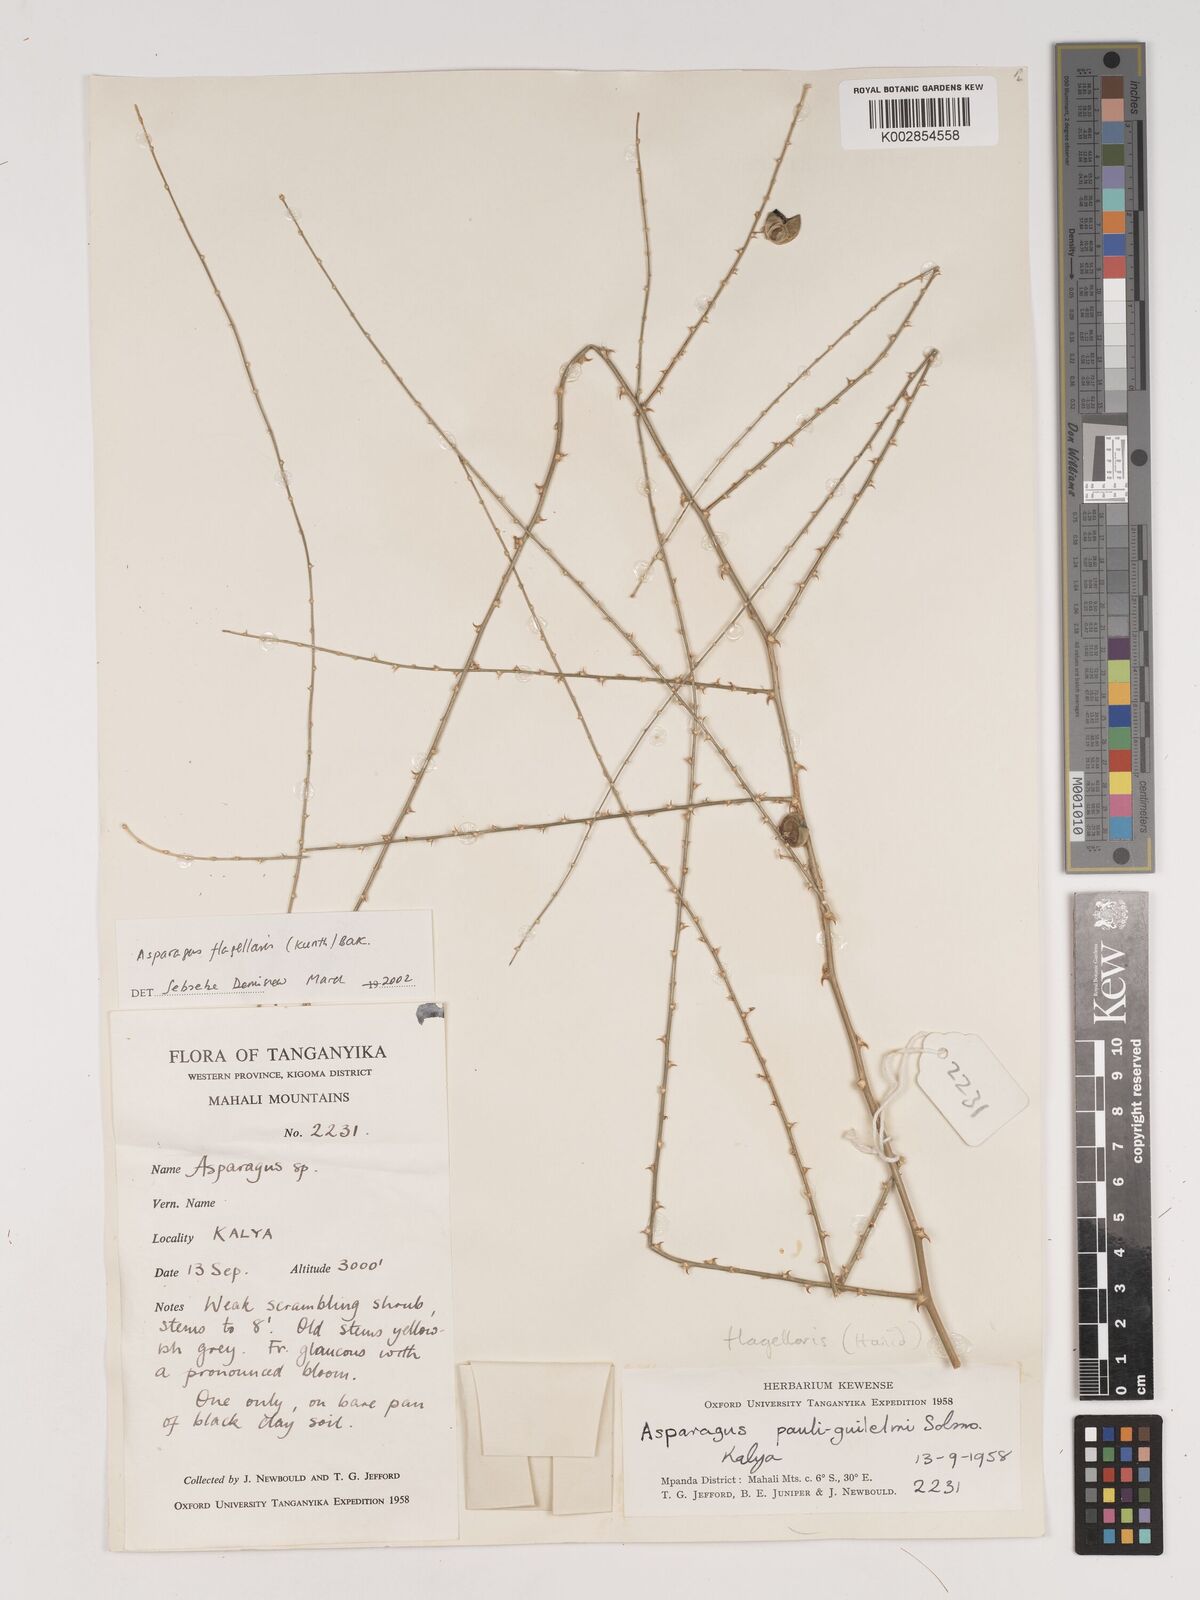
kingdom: Plantae
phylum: Tracheophyta
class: Liliopsida
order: Asparagales
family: Asparagaceae
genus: Asparagus
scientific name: Asparagus flagellaris
